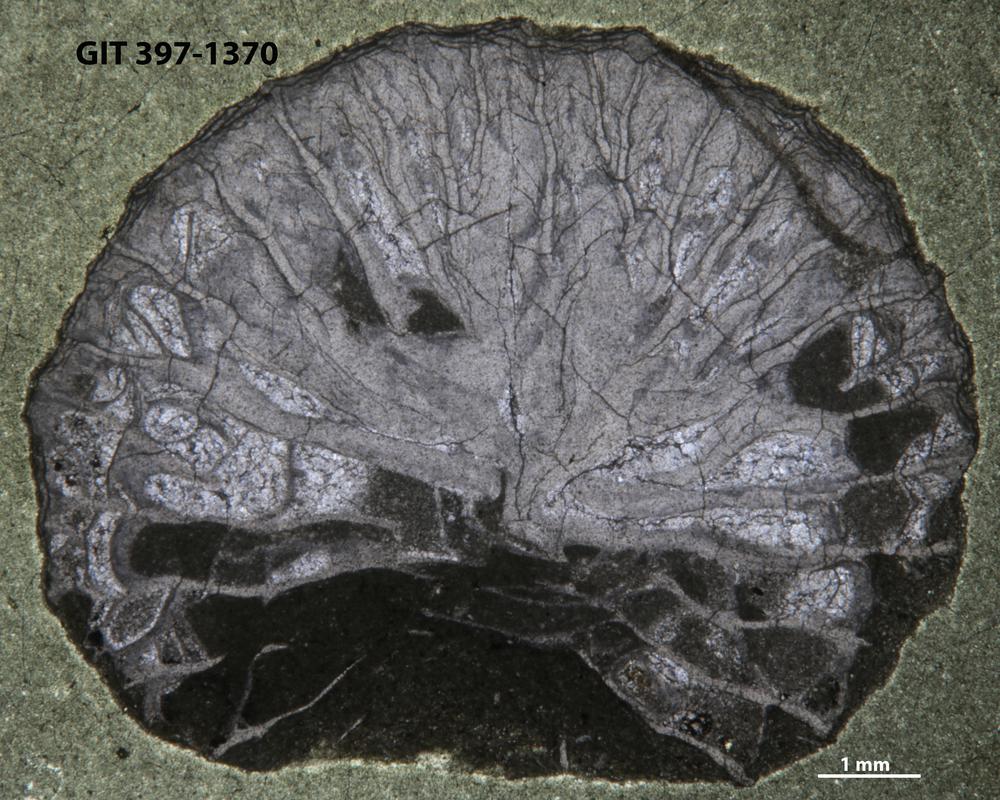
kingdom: Animalia
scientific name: Animalia
